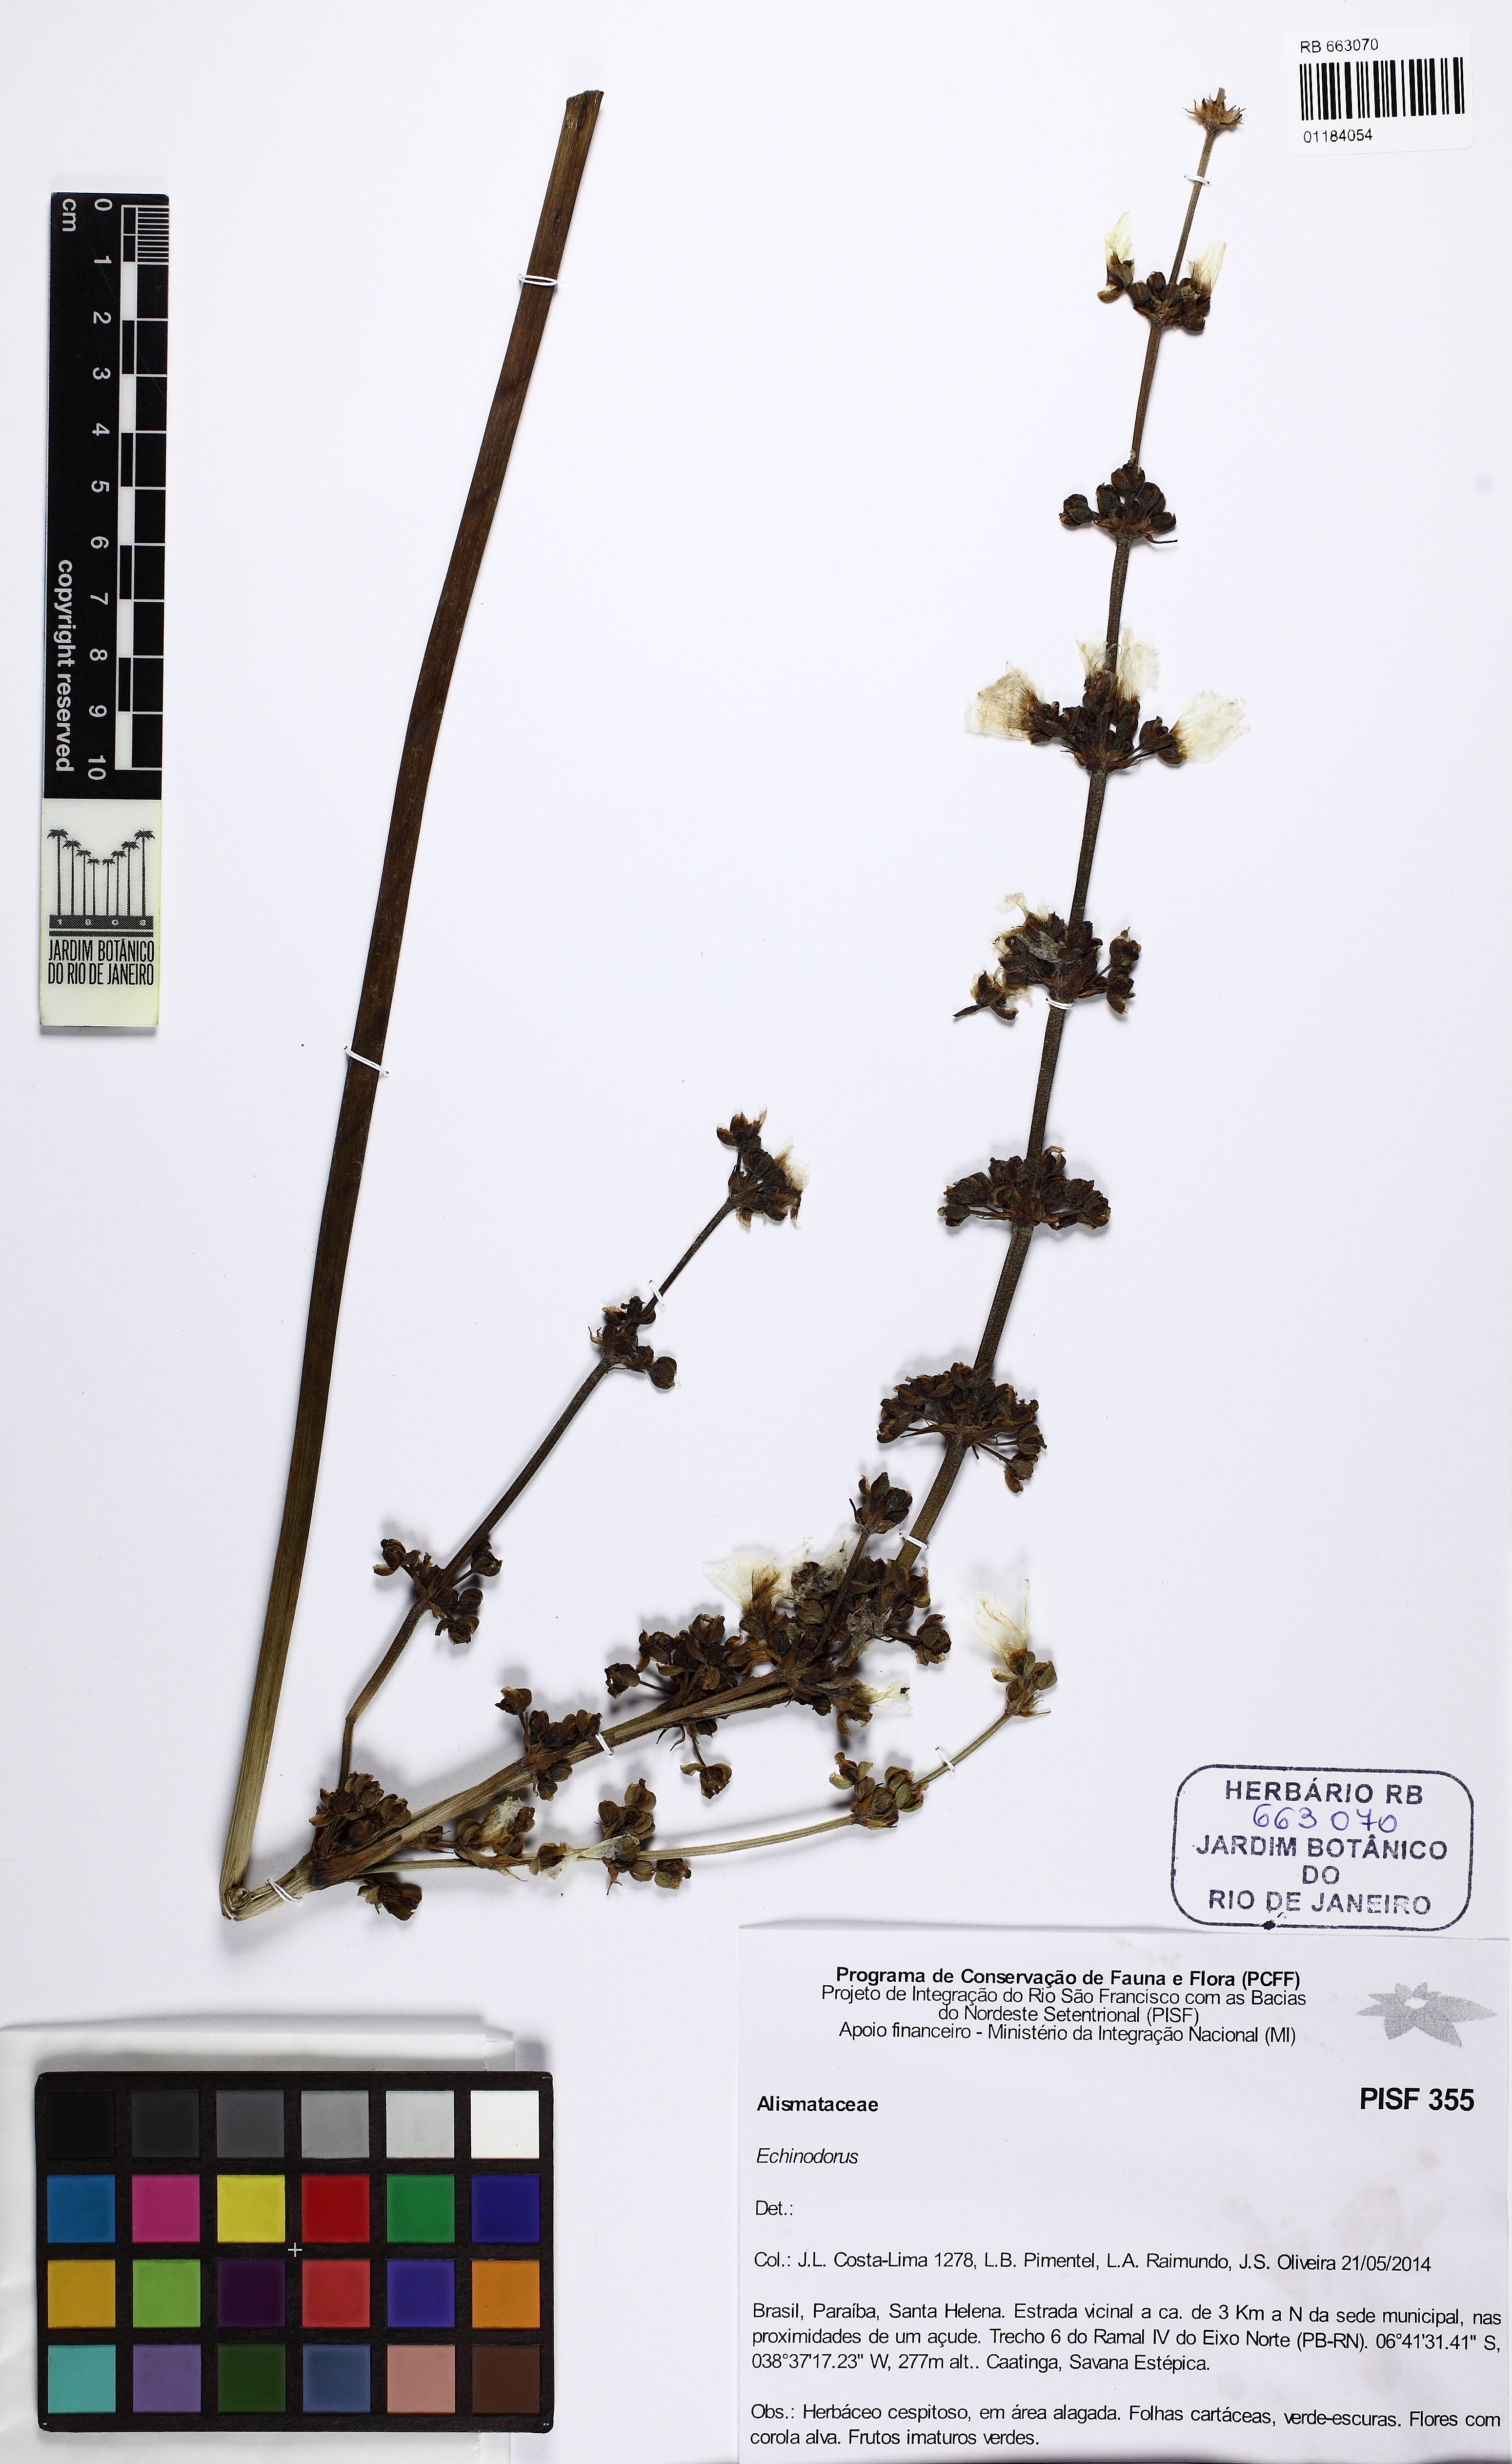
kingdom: Plantae
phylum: Tracheophyta
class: Liliopsida
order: Alismatales
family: Alismataceae
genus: Echinodorus
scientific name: Echinodorus
